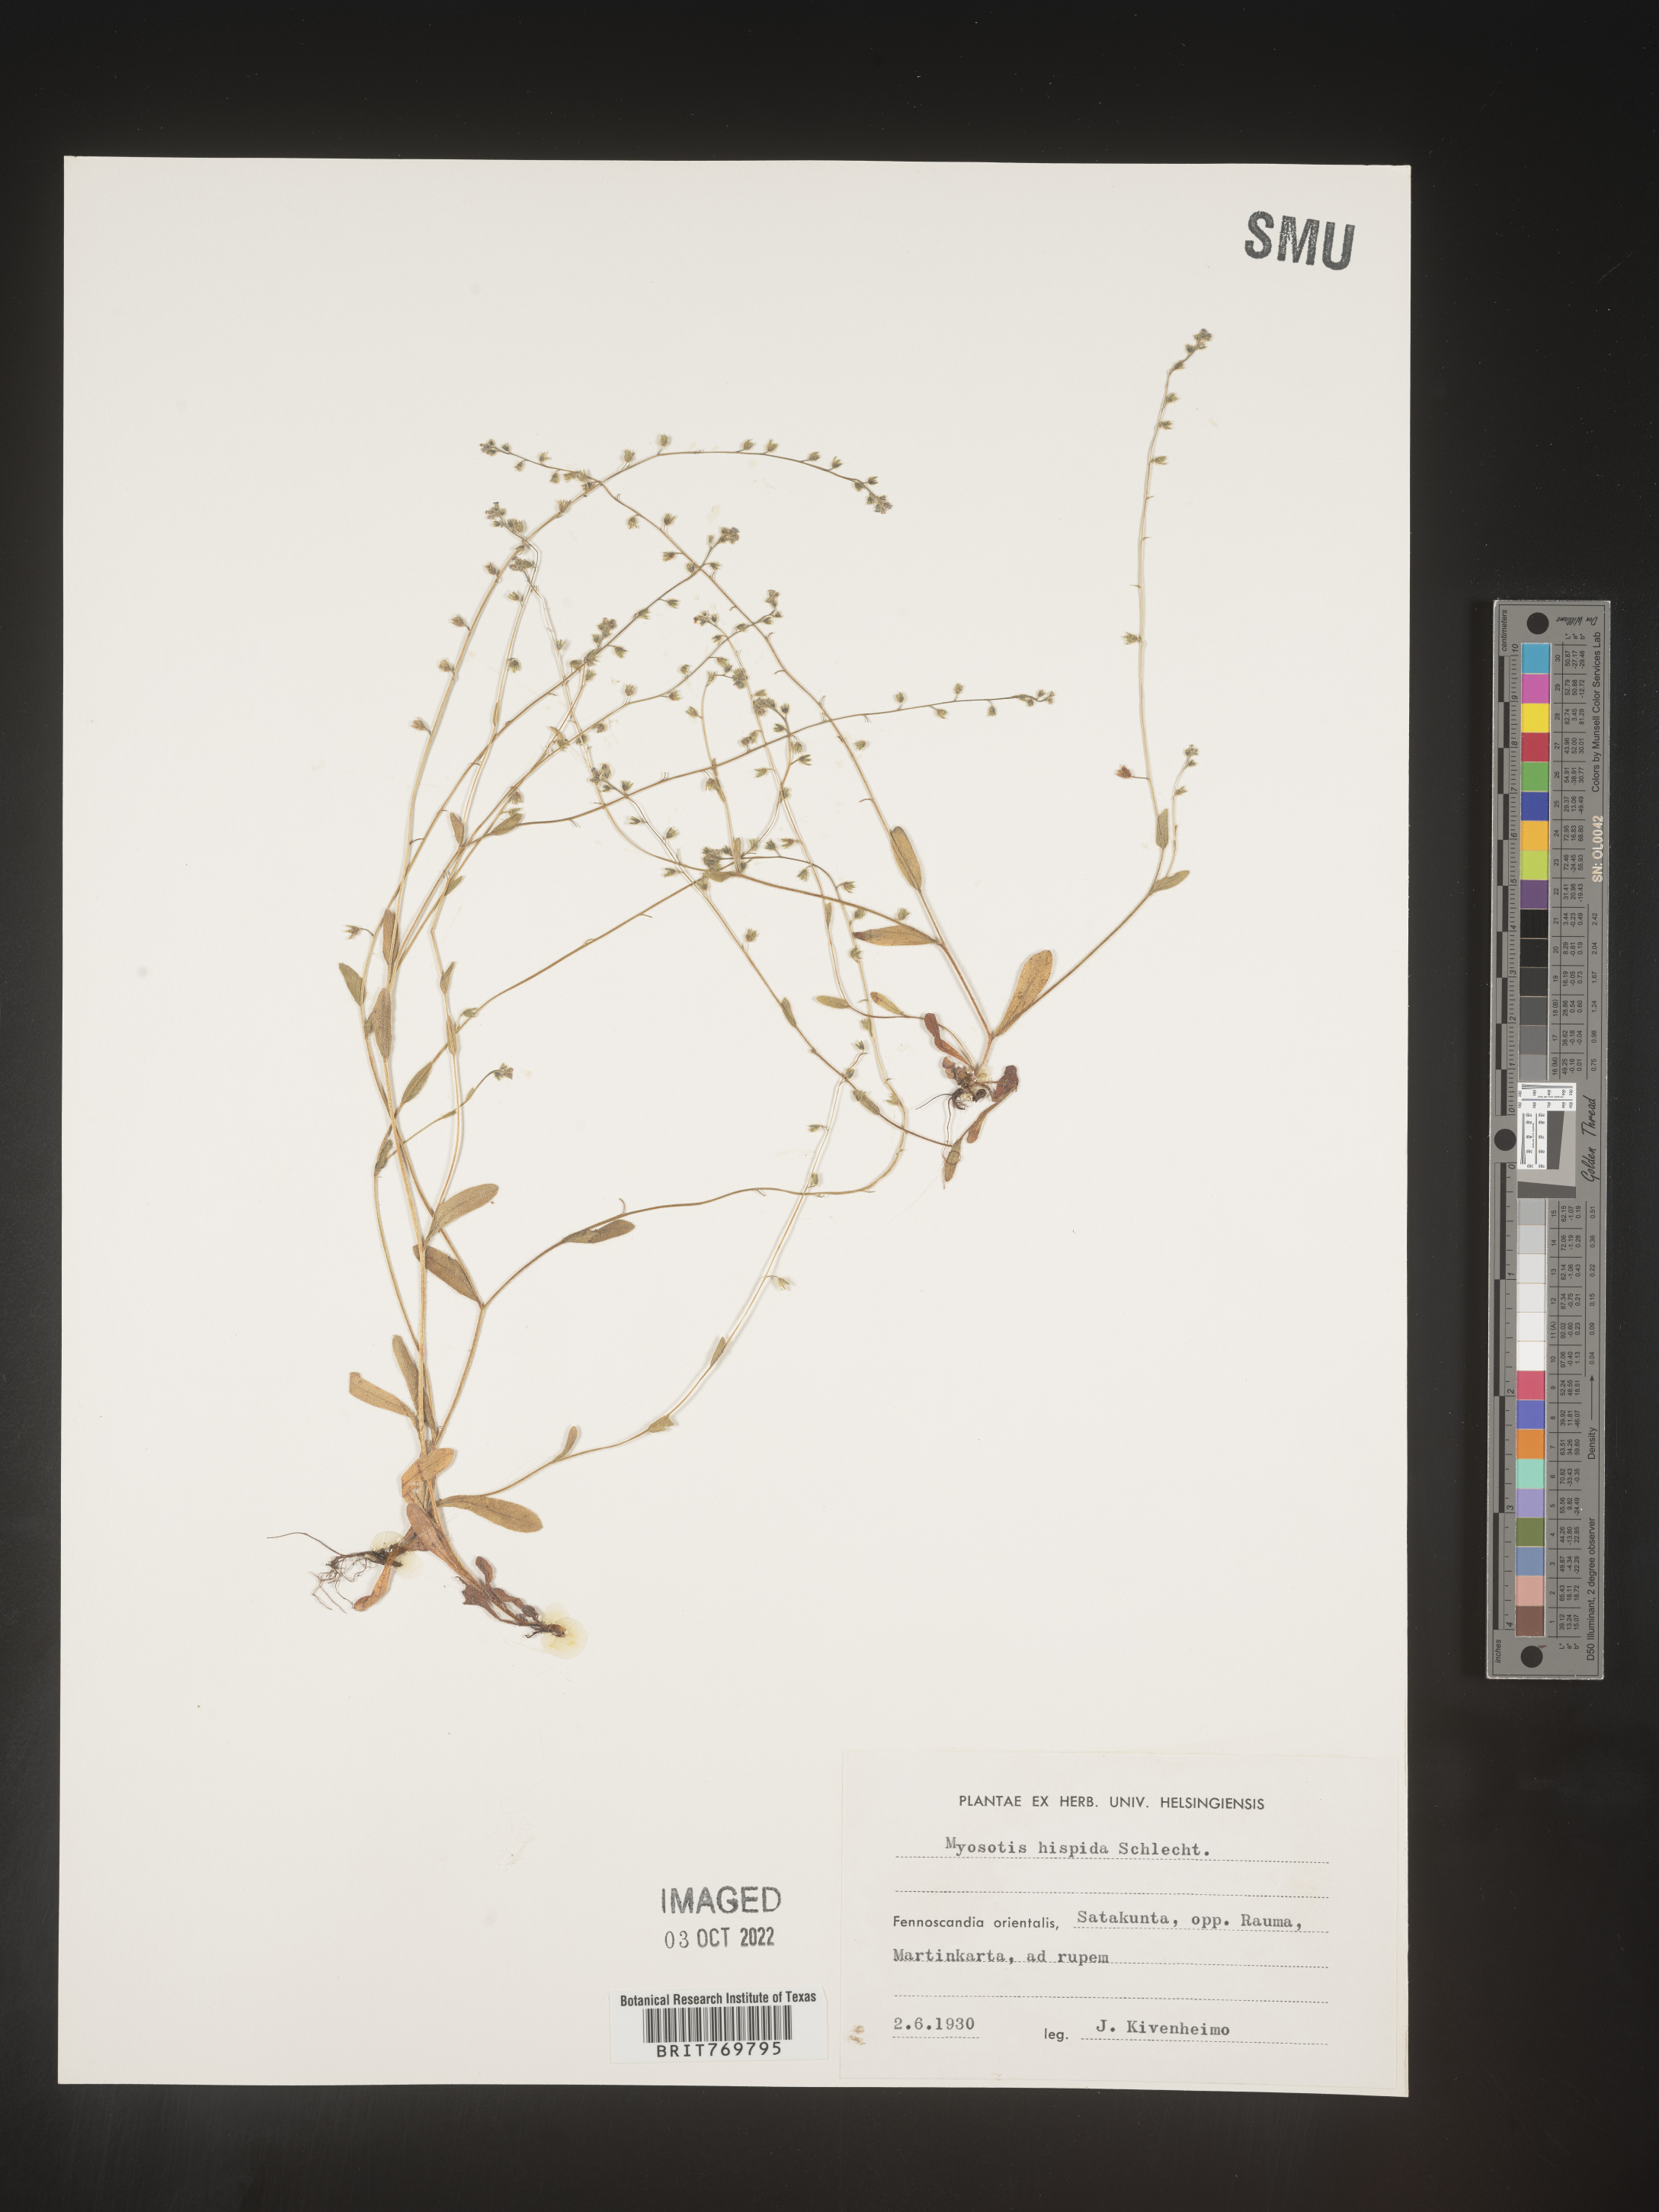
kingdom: Plantae
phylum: Tracheophyta
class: Magnoliopsida
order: Boraginales
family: Boraginaceae
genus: Myosotis
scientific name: Myosotis
